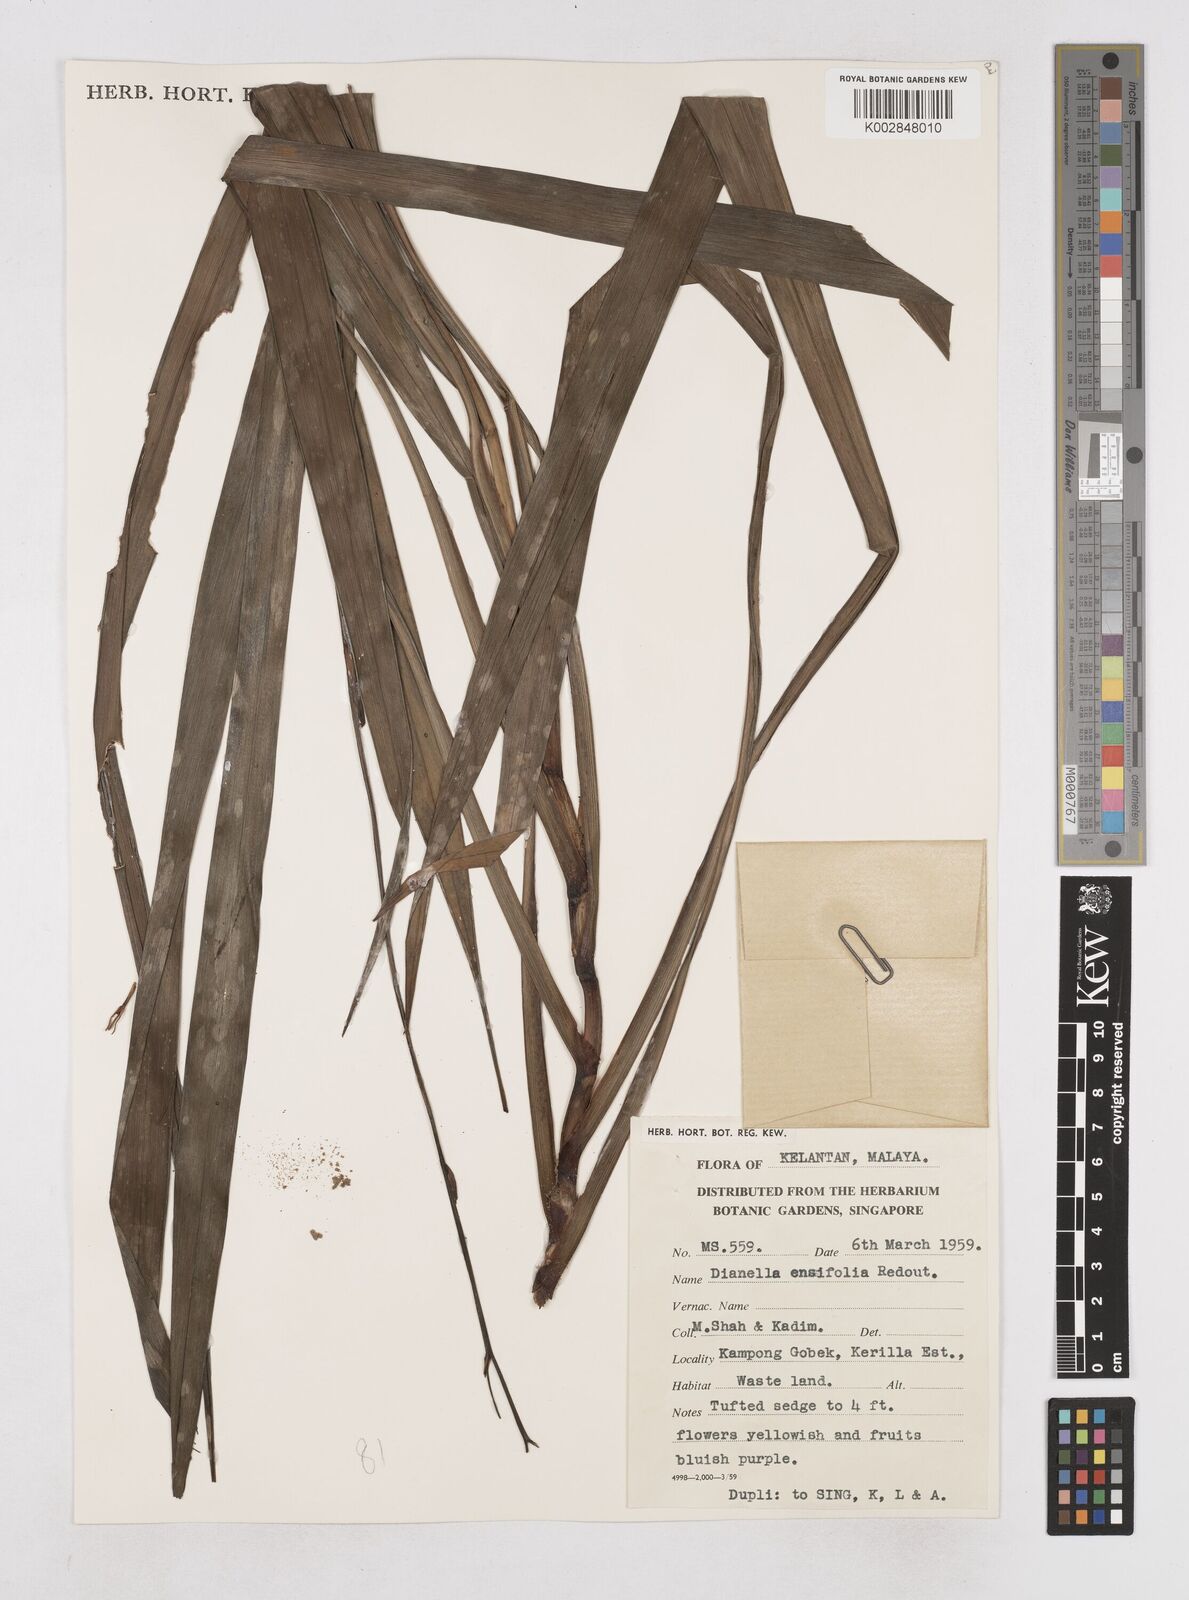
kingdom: Plantae
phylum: Tracheophyta
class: Liliopsida
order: Asparagales
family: Asphodelaceae
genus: Dianella
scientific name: Dianella ensifolia
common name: New zealand lilyplant
